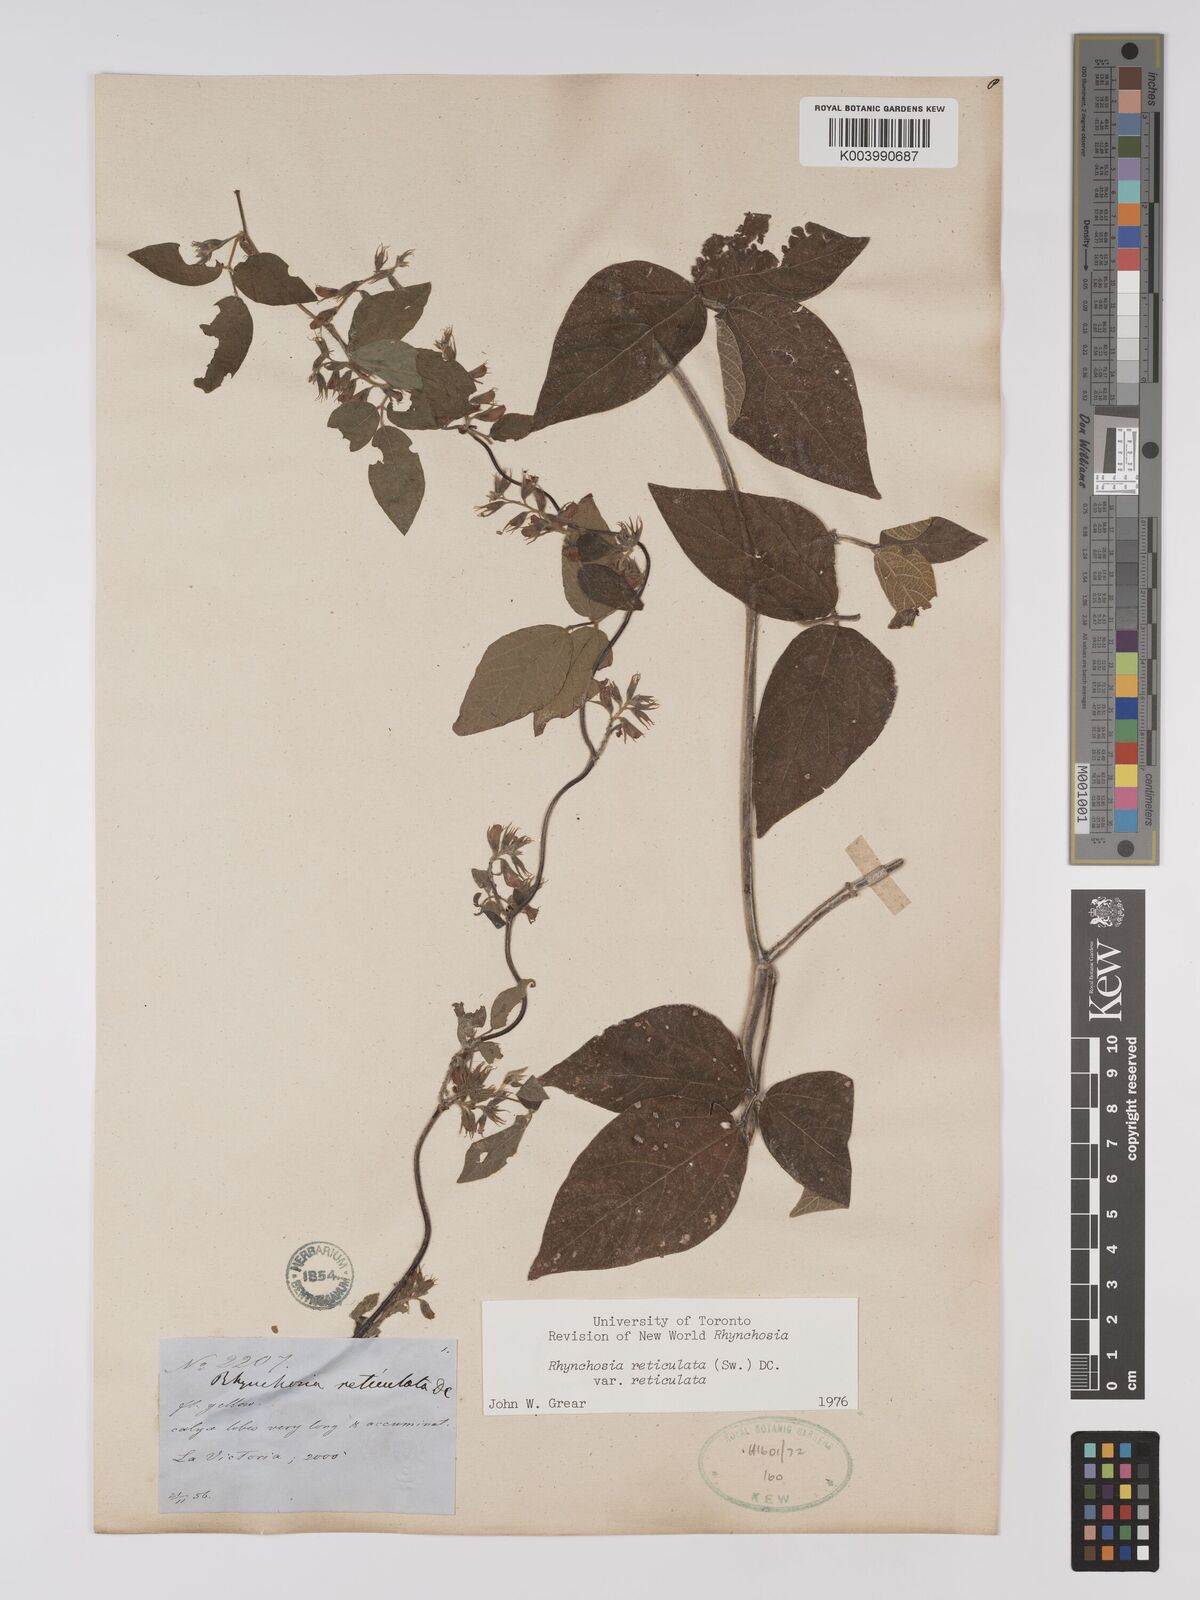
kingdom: Plantae
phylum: Tracheophyta
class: Magnoliopsida
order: Fabales
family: Fabaceae
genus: Rhynchosia
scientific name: Rhynchosia reticulata
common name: Pea withe
